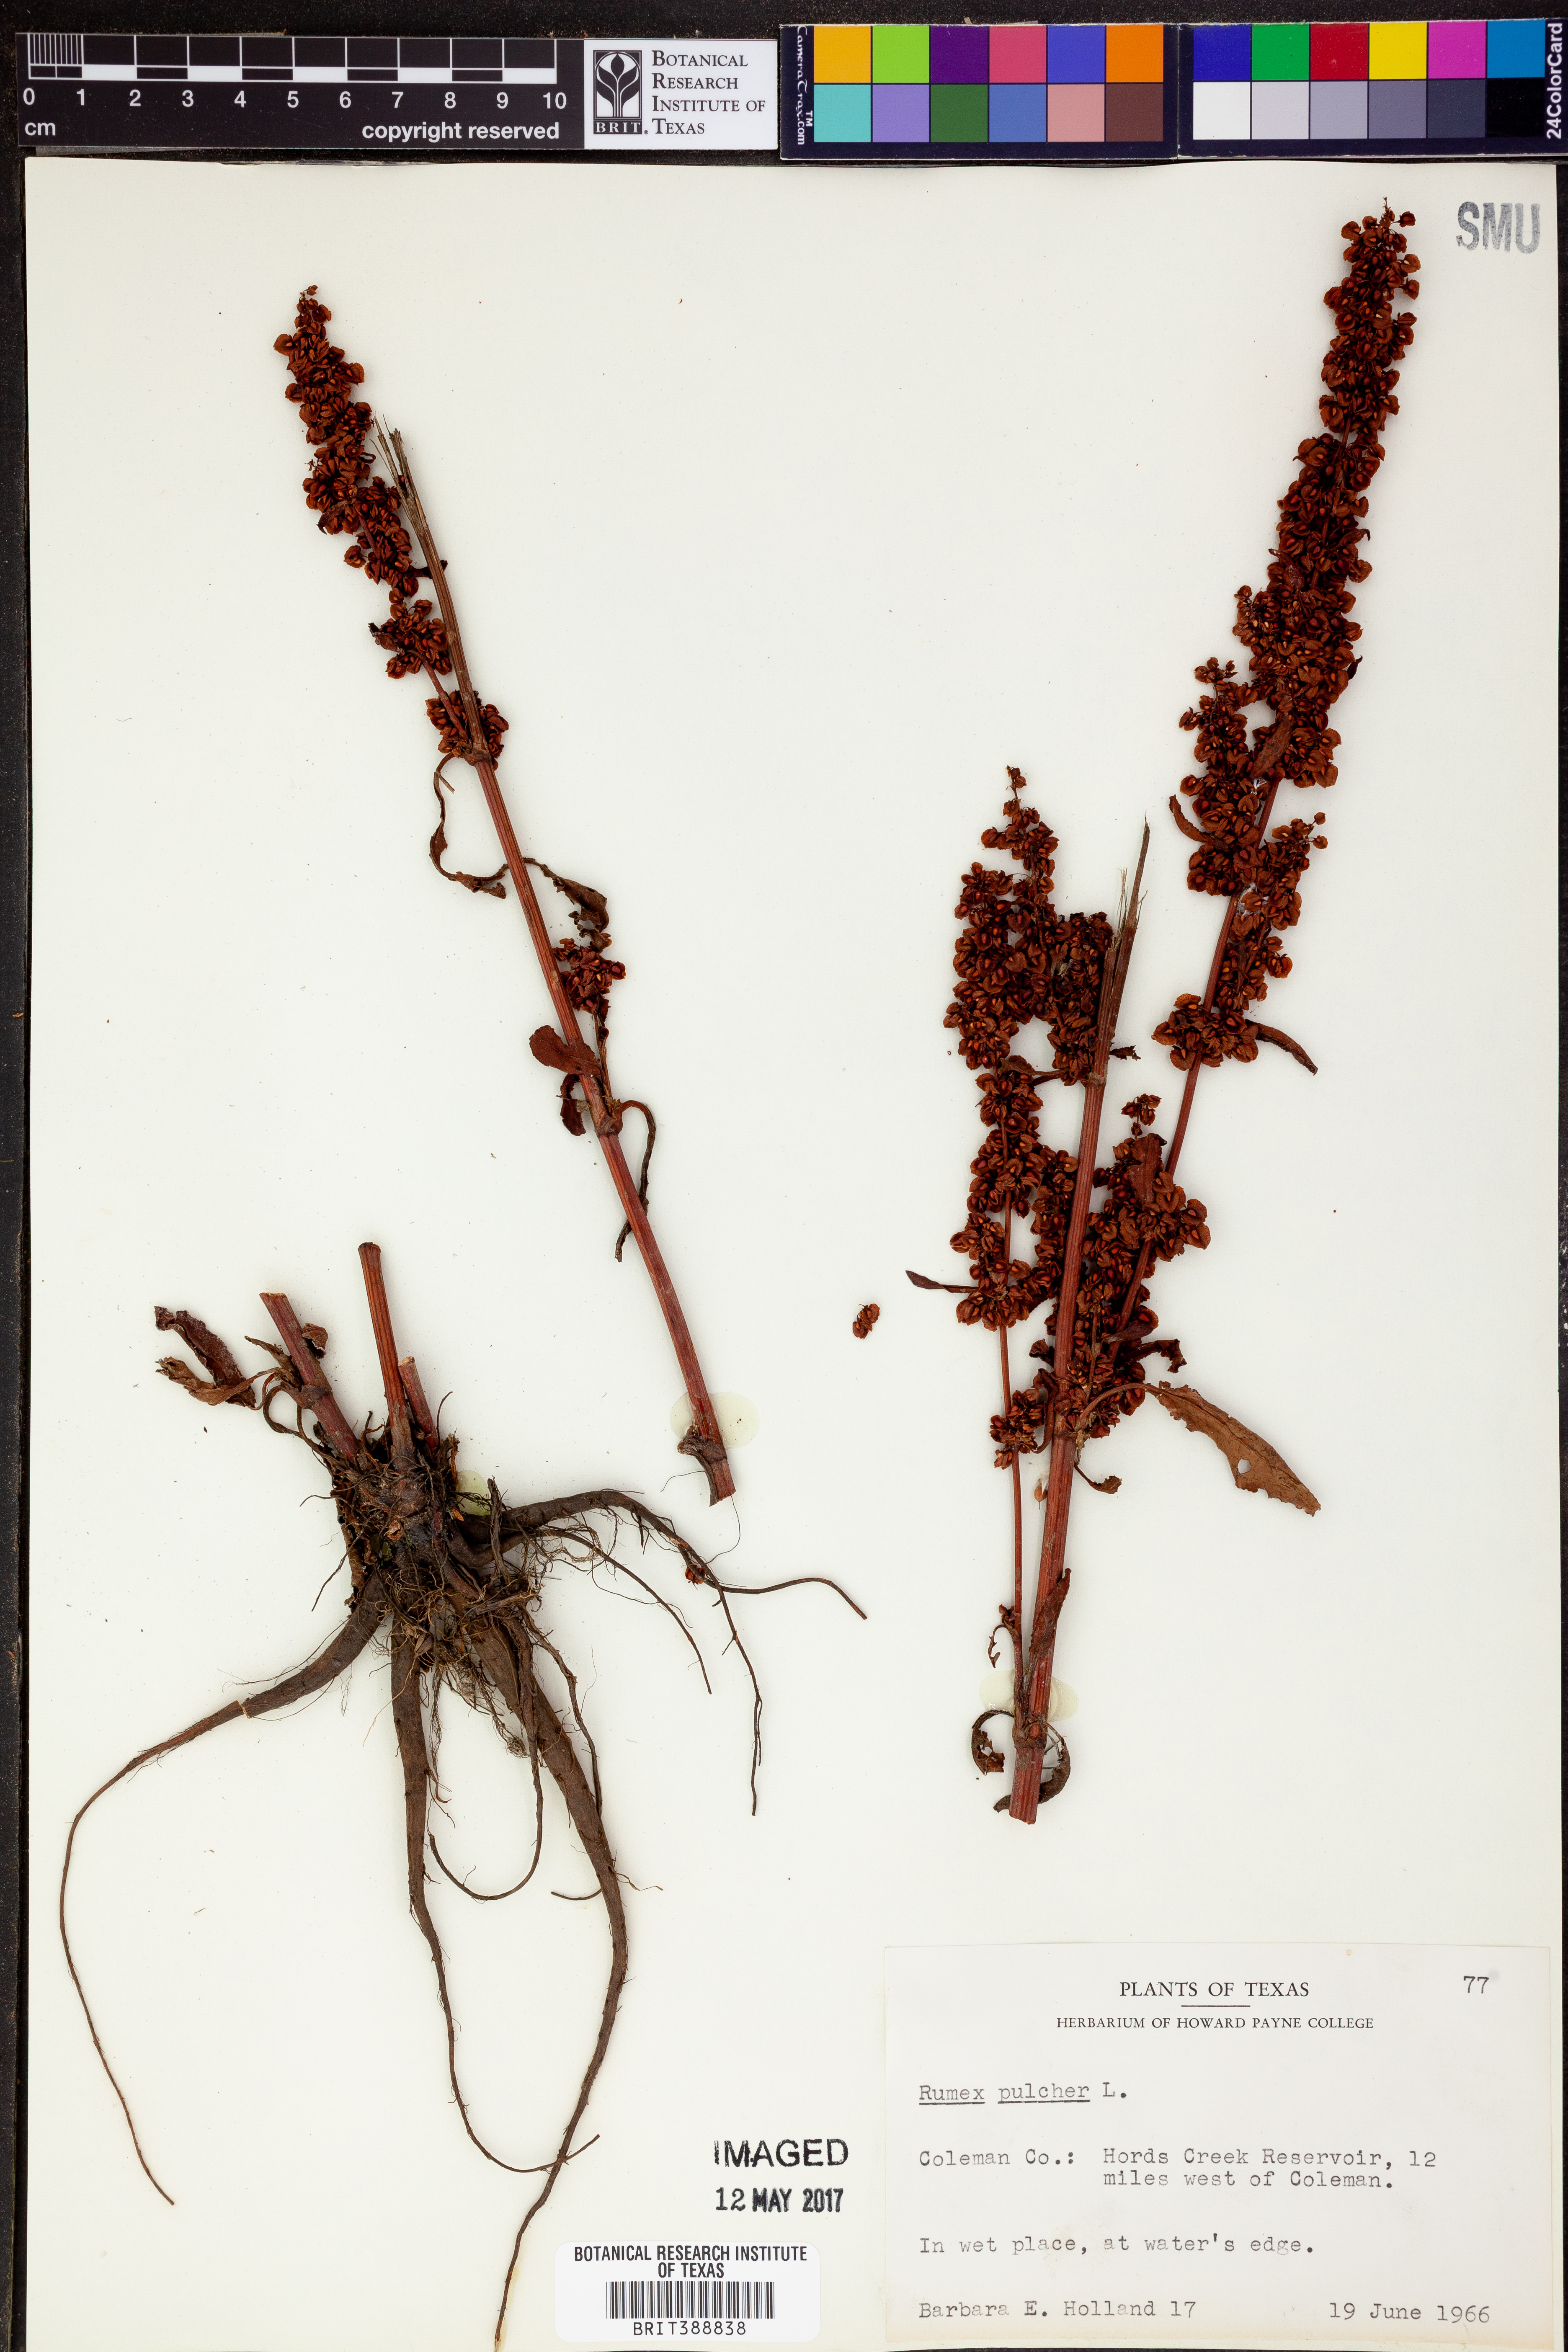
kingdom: Plantae
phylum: Tracheophyta
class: Magnoliopsida
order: Caryophyllales
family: Polygonaceae
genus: Rumex
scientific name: Rumex pulcher
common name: Fiddle dock
